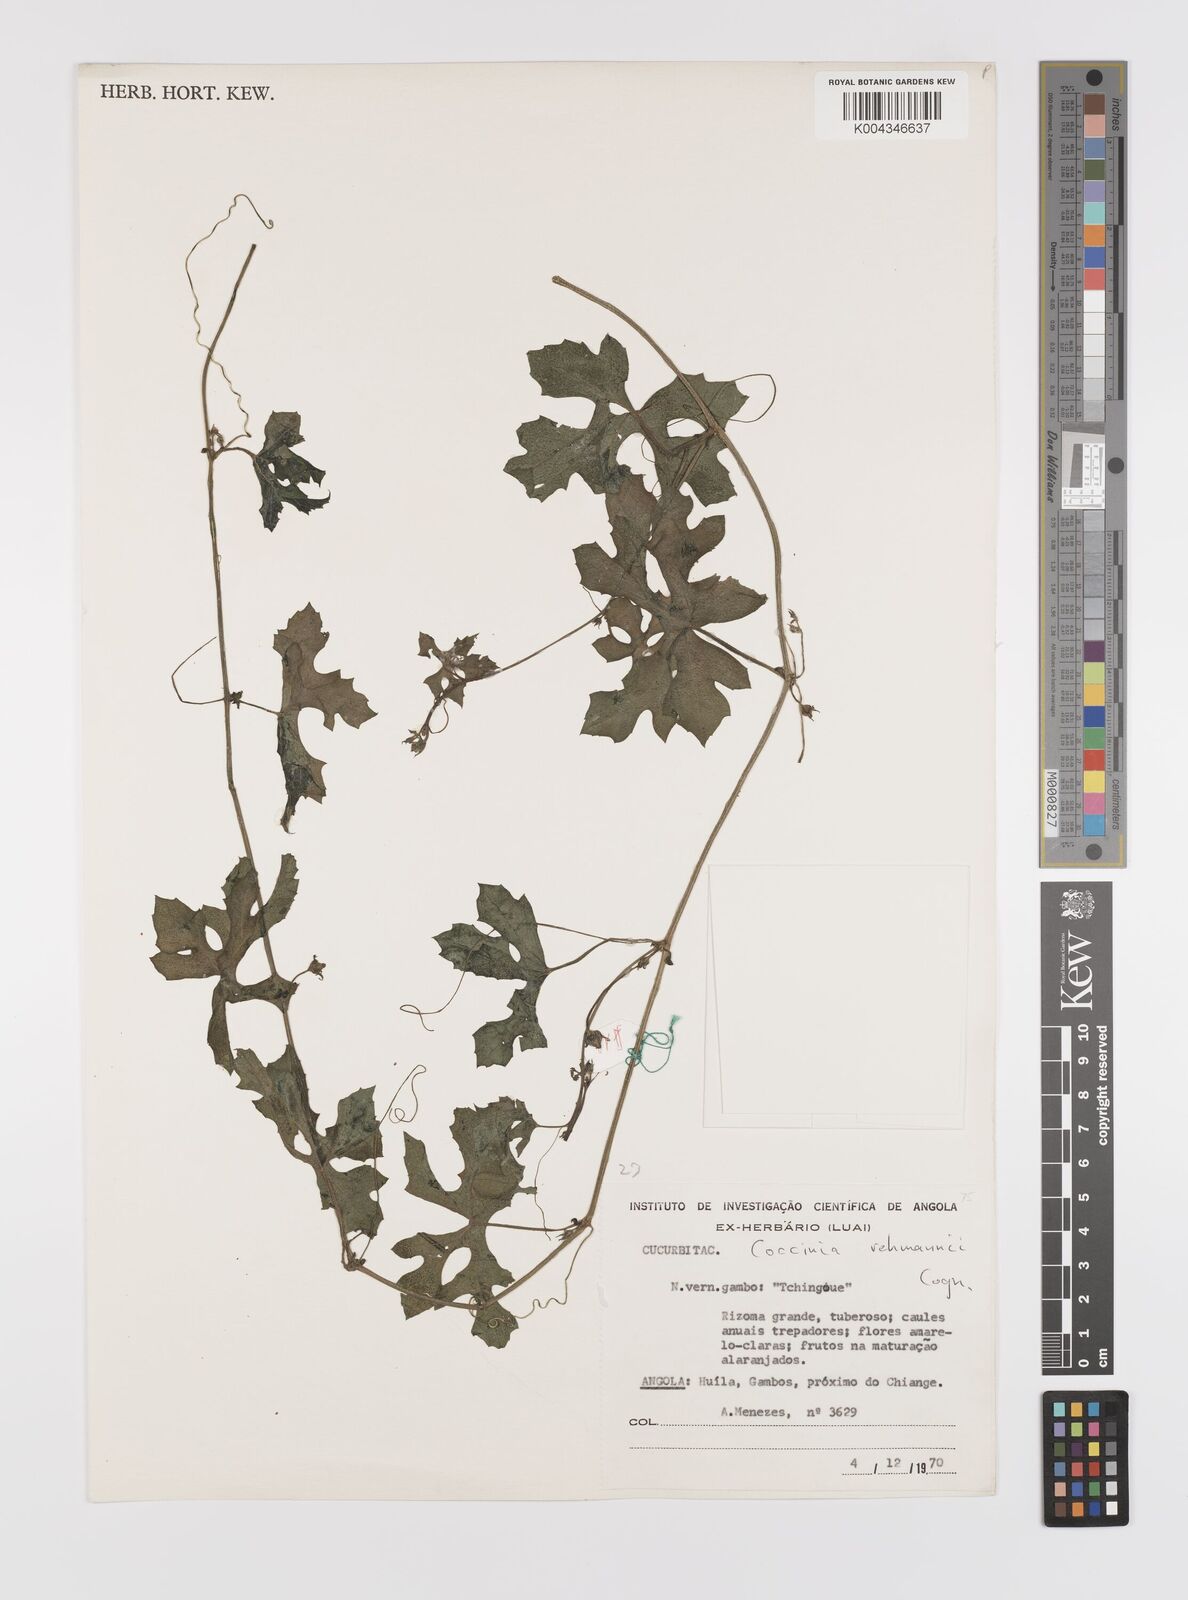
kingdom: Plantae
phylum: Tracheophyta
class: Magnoliopsida
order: Cucurbitales
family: Cucurbitaceae
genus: Coccinia
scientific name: Coccinia rehmannii
